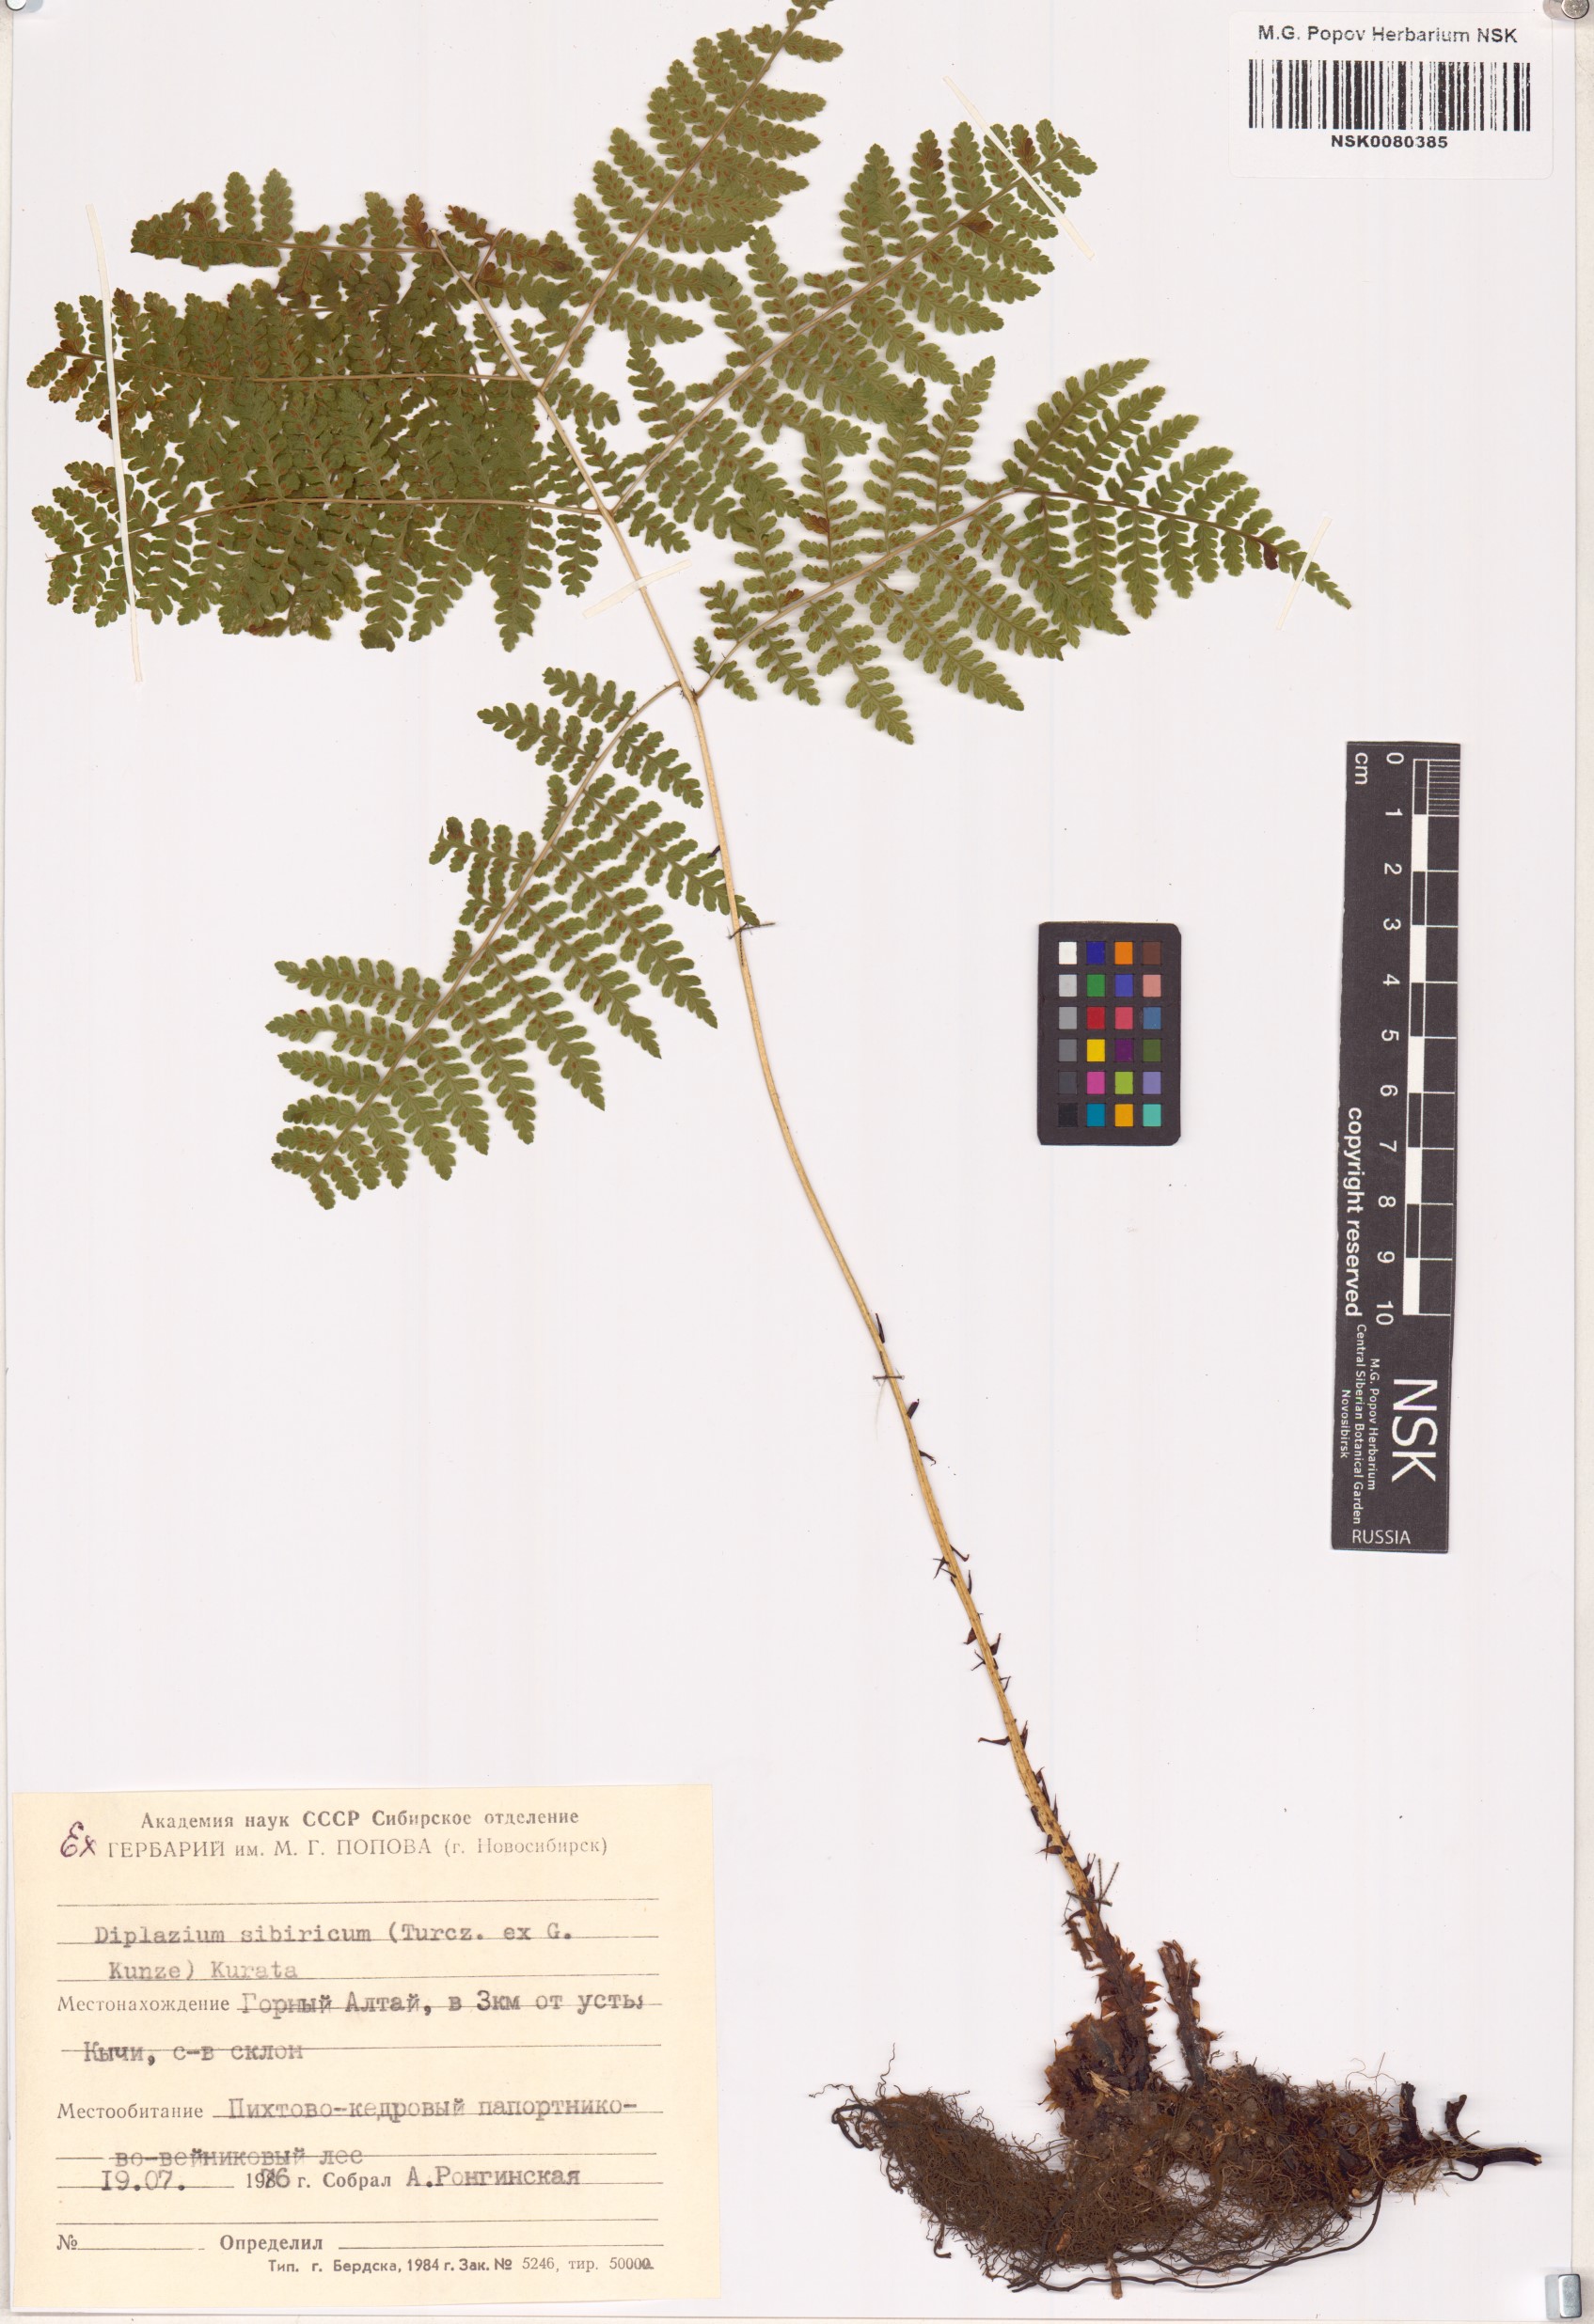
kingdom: Plantae
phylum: Tracheophyta
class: Polypodiopsida
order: Polypodiales
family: Athyriaceae
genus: Diplazium
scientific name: Diplazium sibiricum
